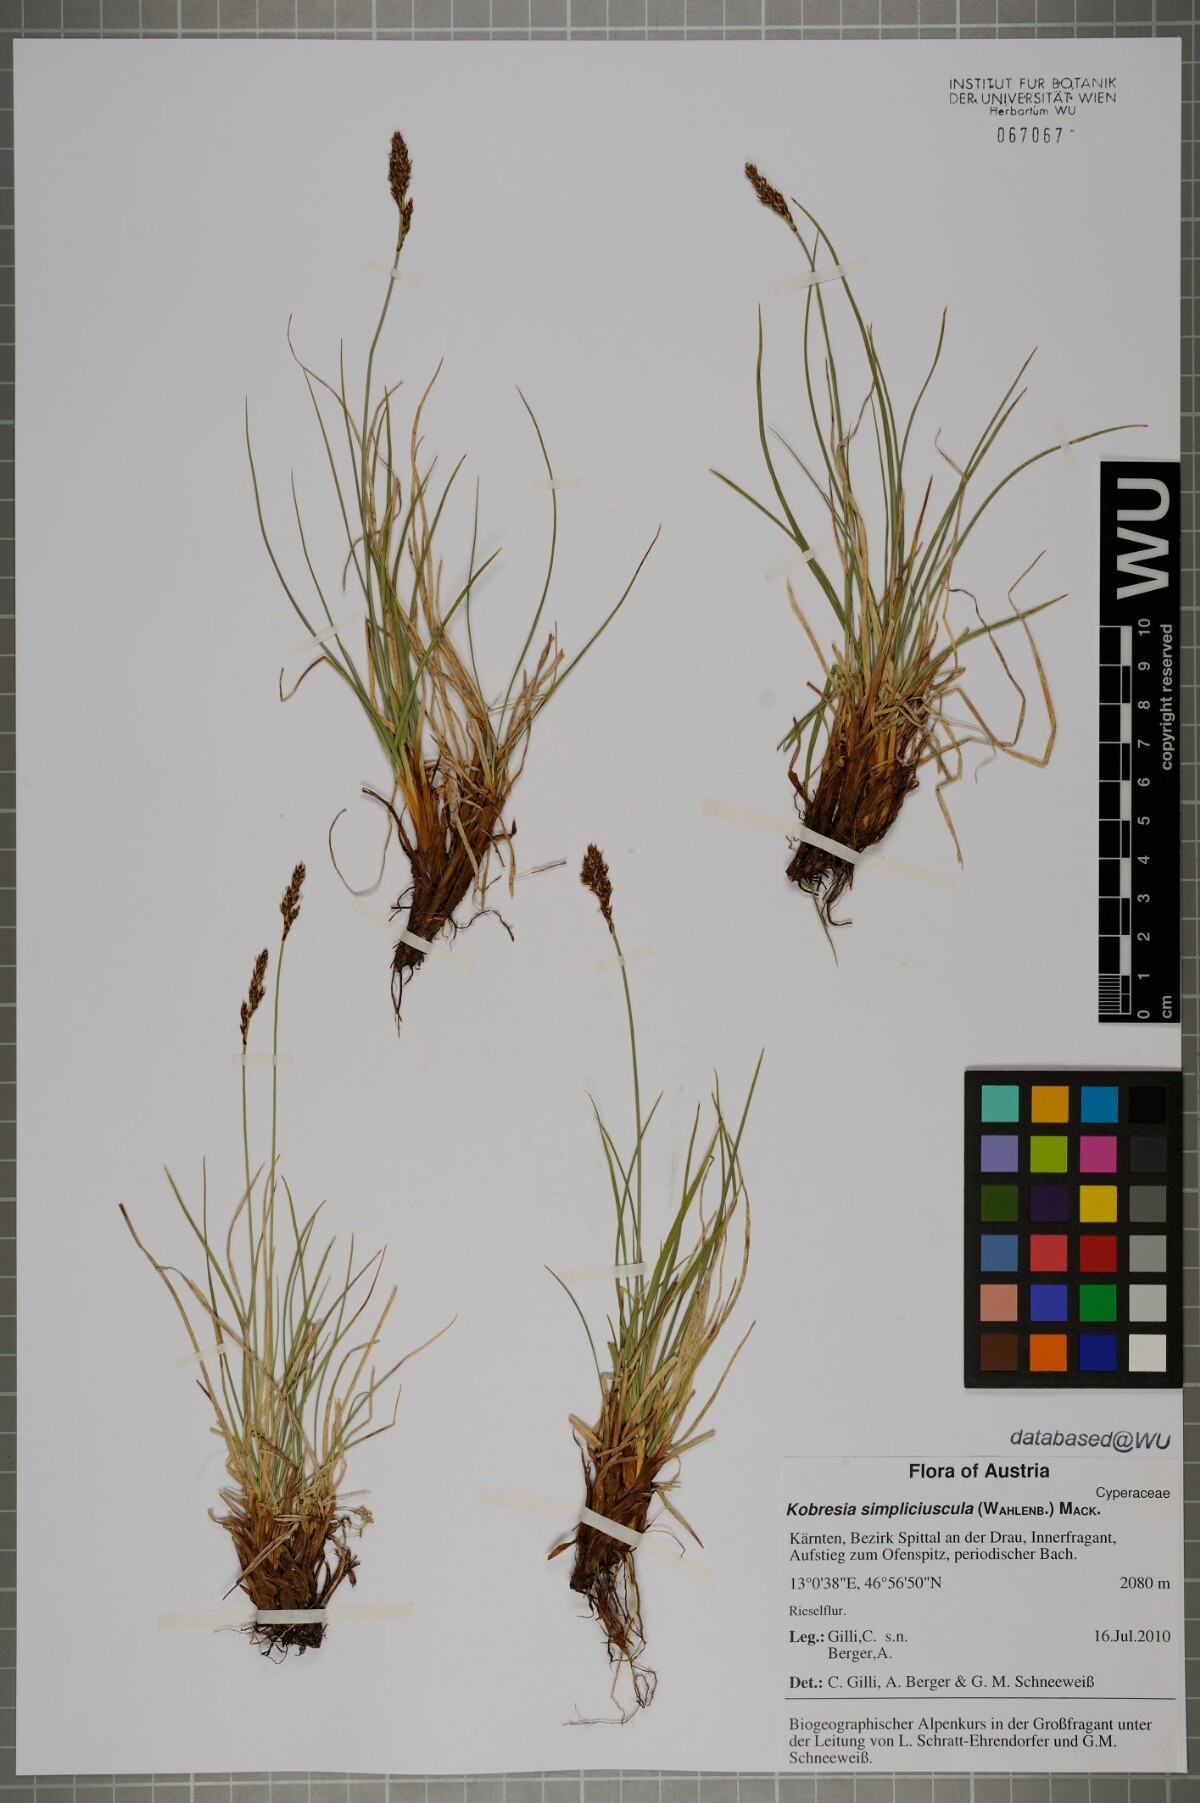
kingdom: Plantae
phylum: Tracheophyta
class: Liliopsida
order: Poales
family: Cyperaceae
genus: Carex
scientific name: Carex simpliciuscula
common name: Simple bog sedge
